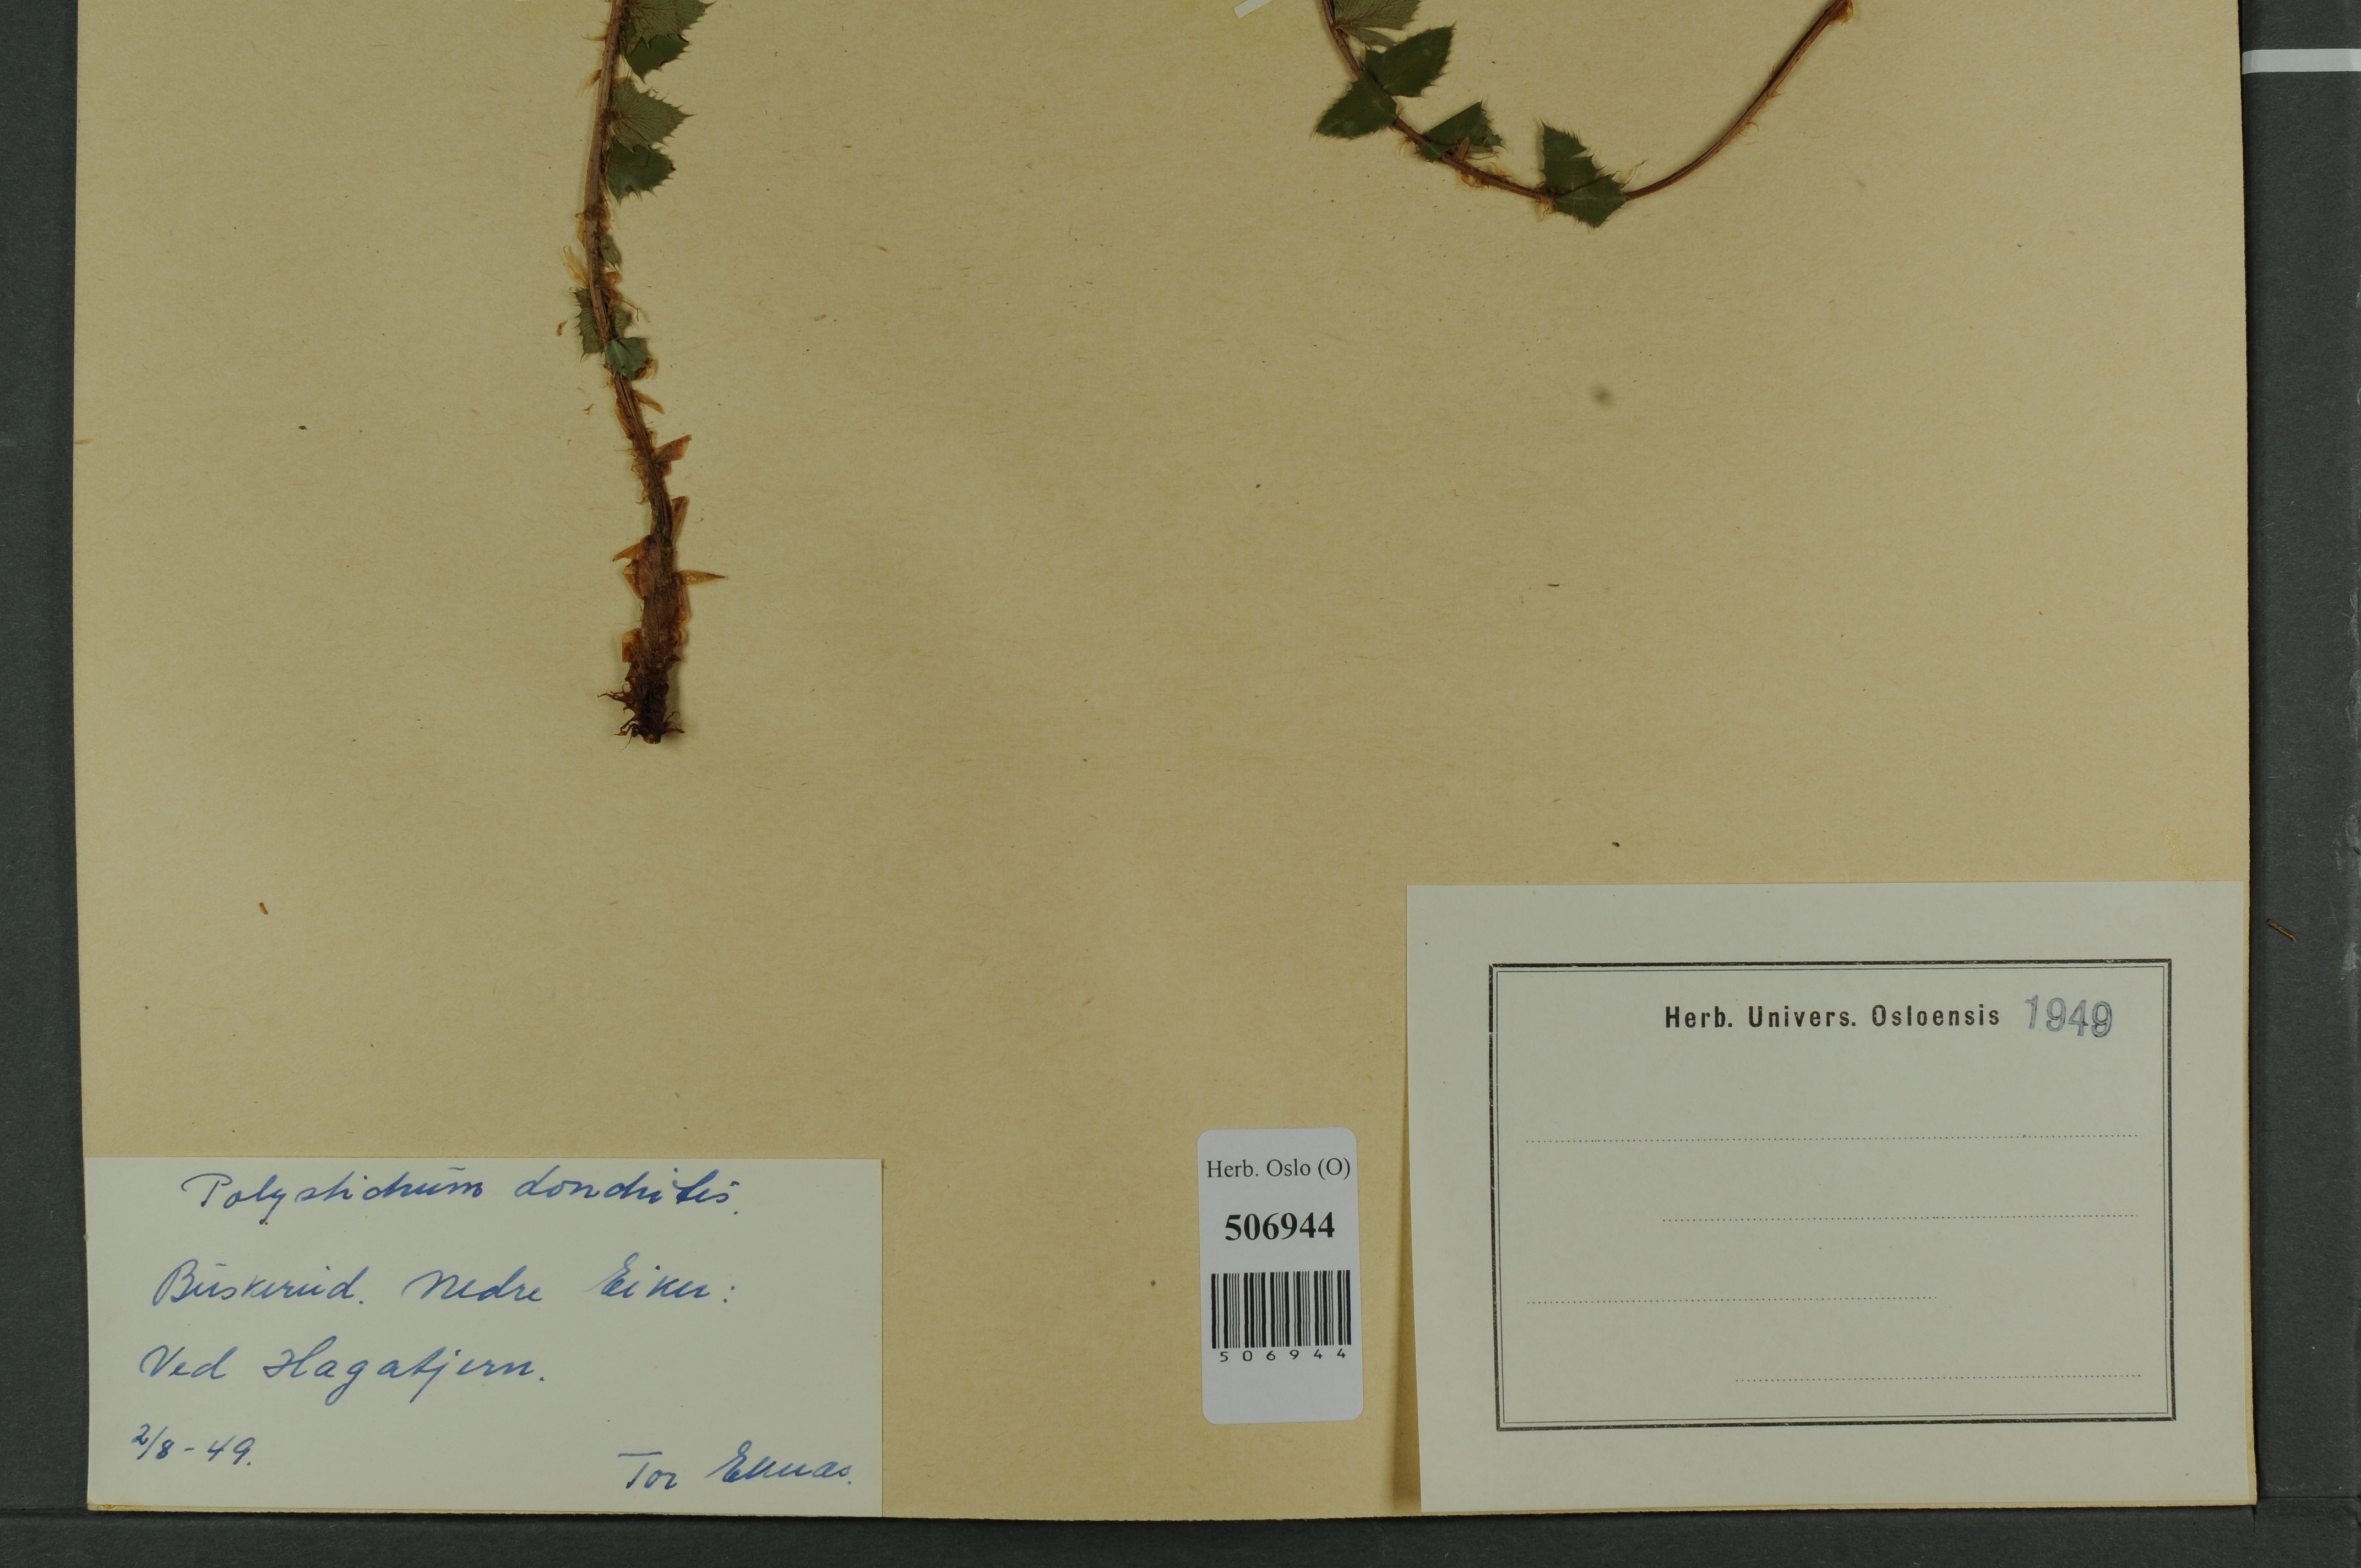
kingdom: Plantae
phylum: Tracheophyta
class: Polypodiopsida
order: Polypodiales
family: Dryopteridaceae
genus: Polystichum
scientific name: Polystichum lonchitis
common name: Holly fern
